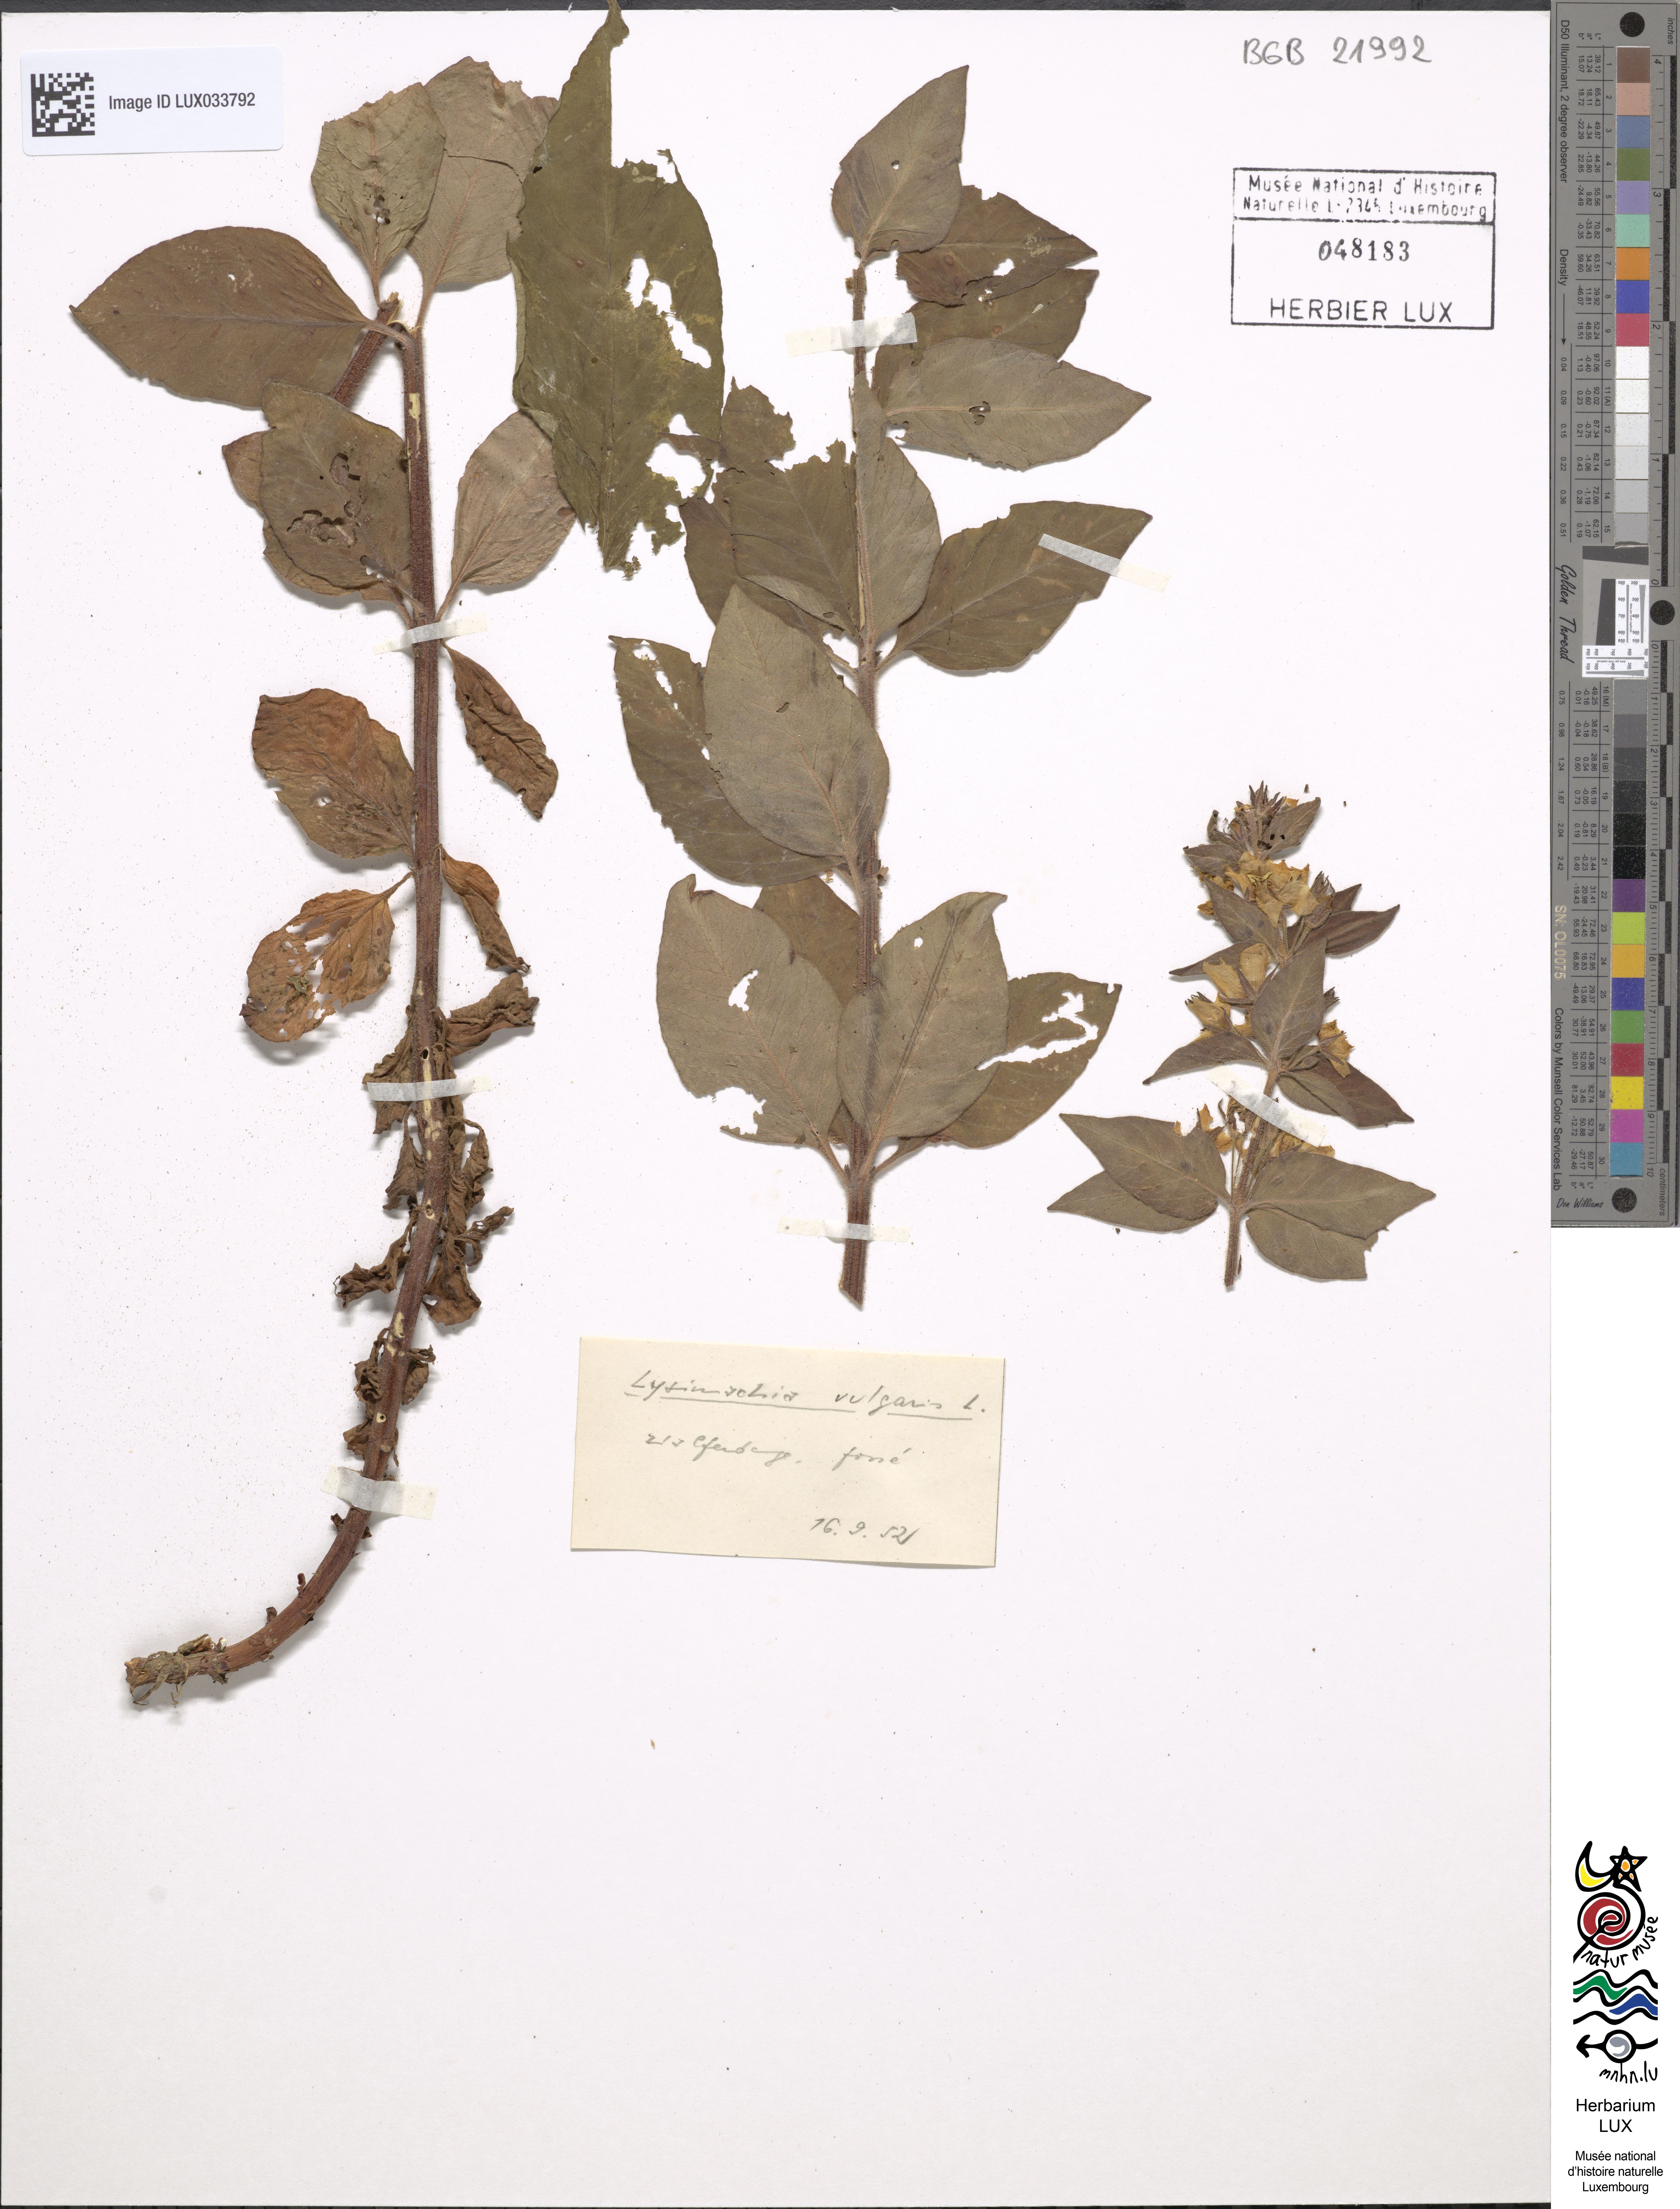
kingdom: Plantae
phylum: Tracheophyta
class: Magnoliopsida
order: Ericales
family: Primulaceae
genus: Lysimachia
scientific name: Lysimachia vulgaris
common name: Yellow loosestrife
